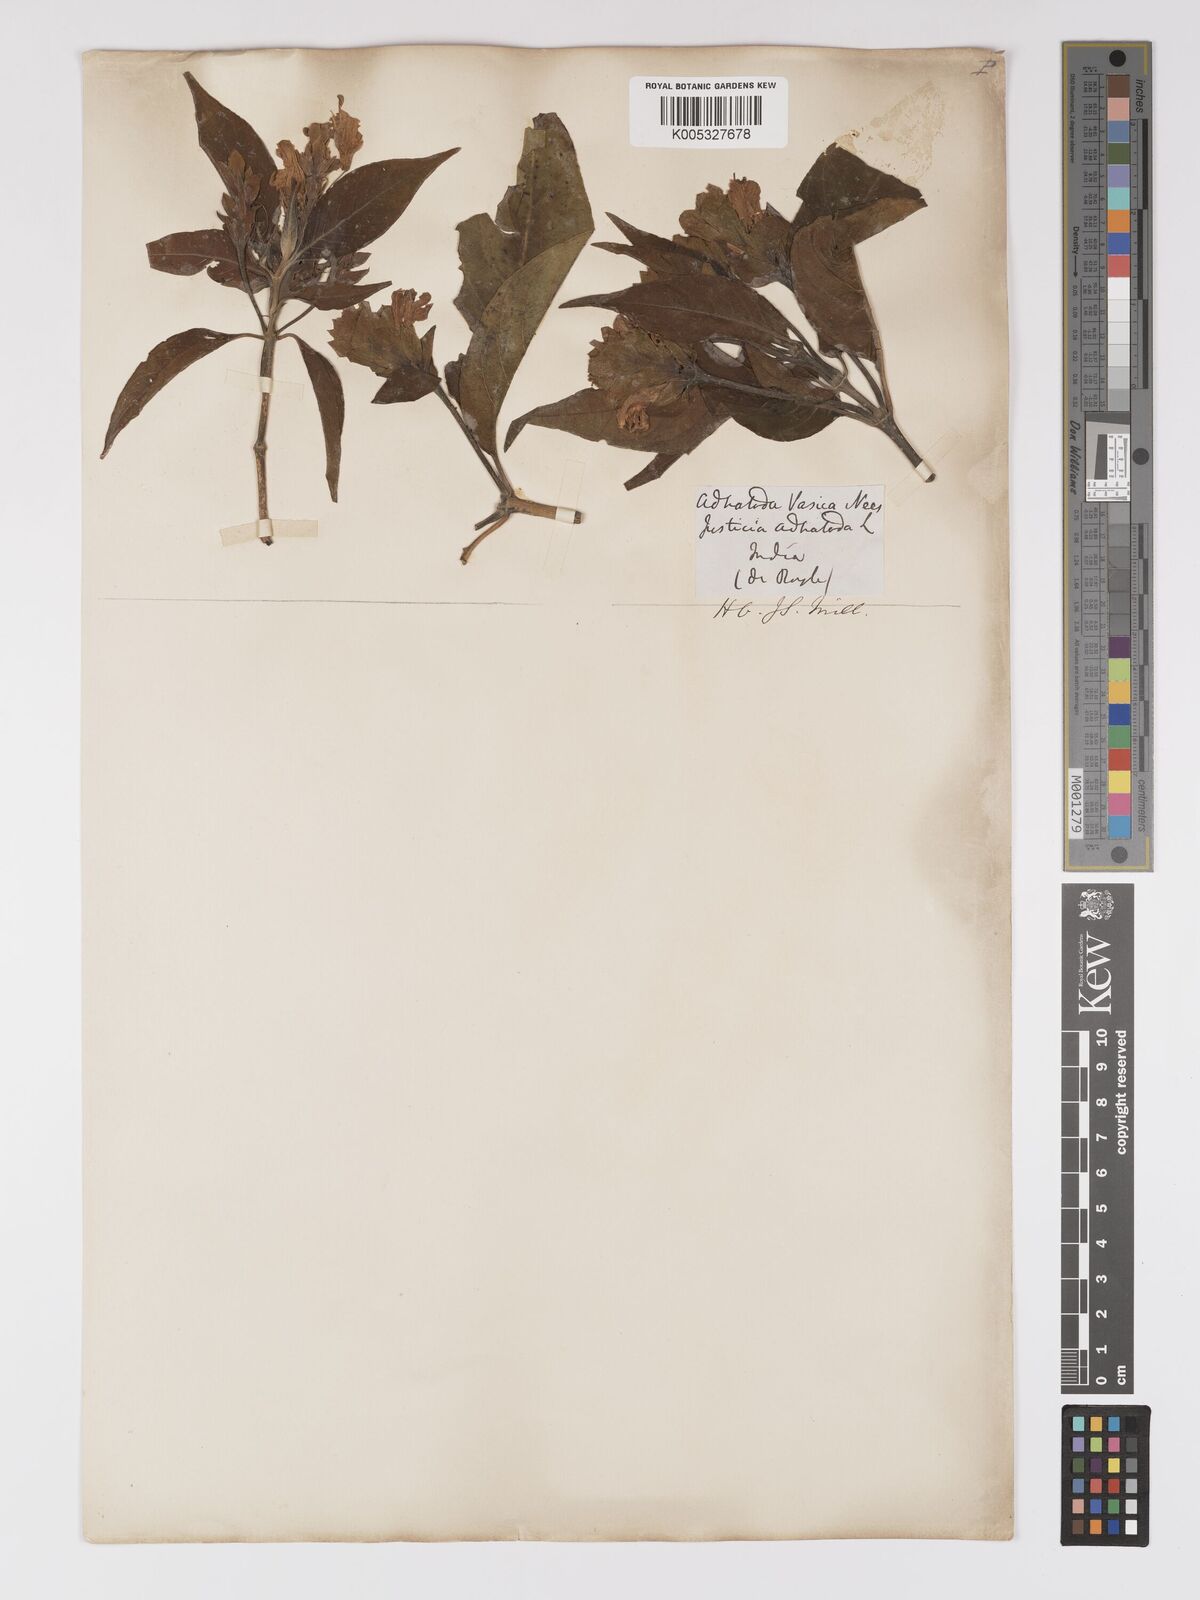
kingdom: Plantae
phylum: Tracheophyta
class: Magnoliopsida
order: Lamiales
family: Acanthaceae
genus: Ecbolium
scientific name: Ecbolium ligustrinum
